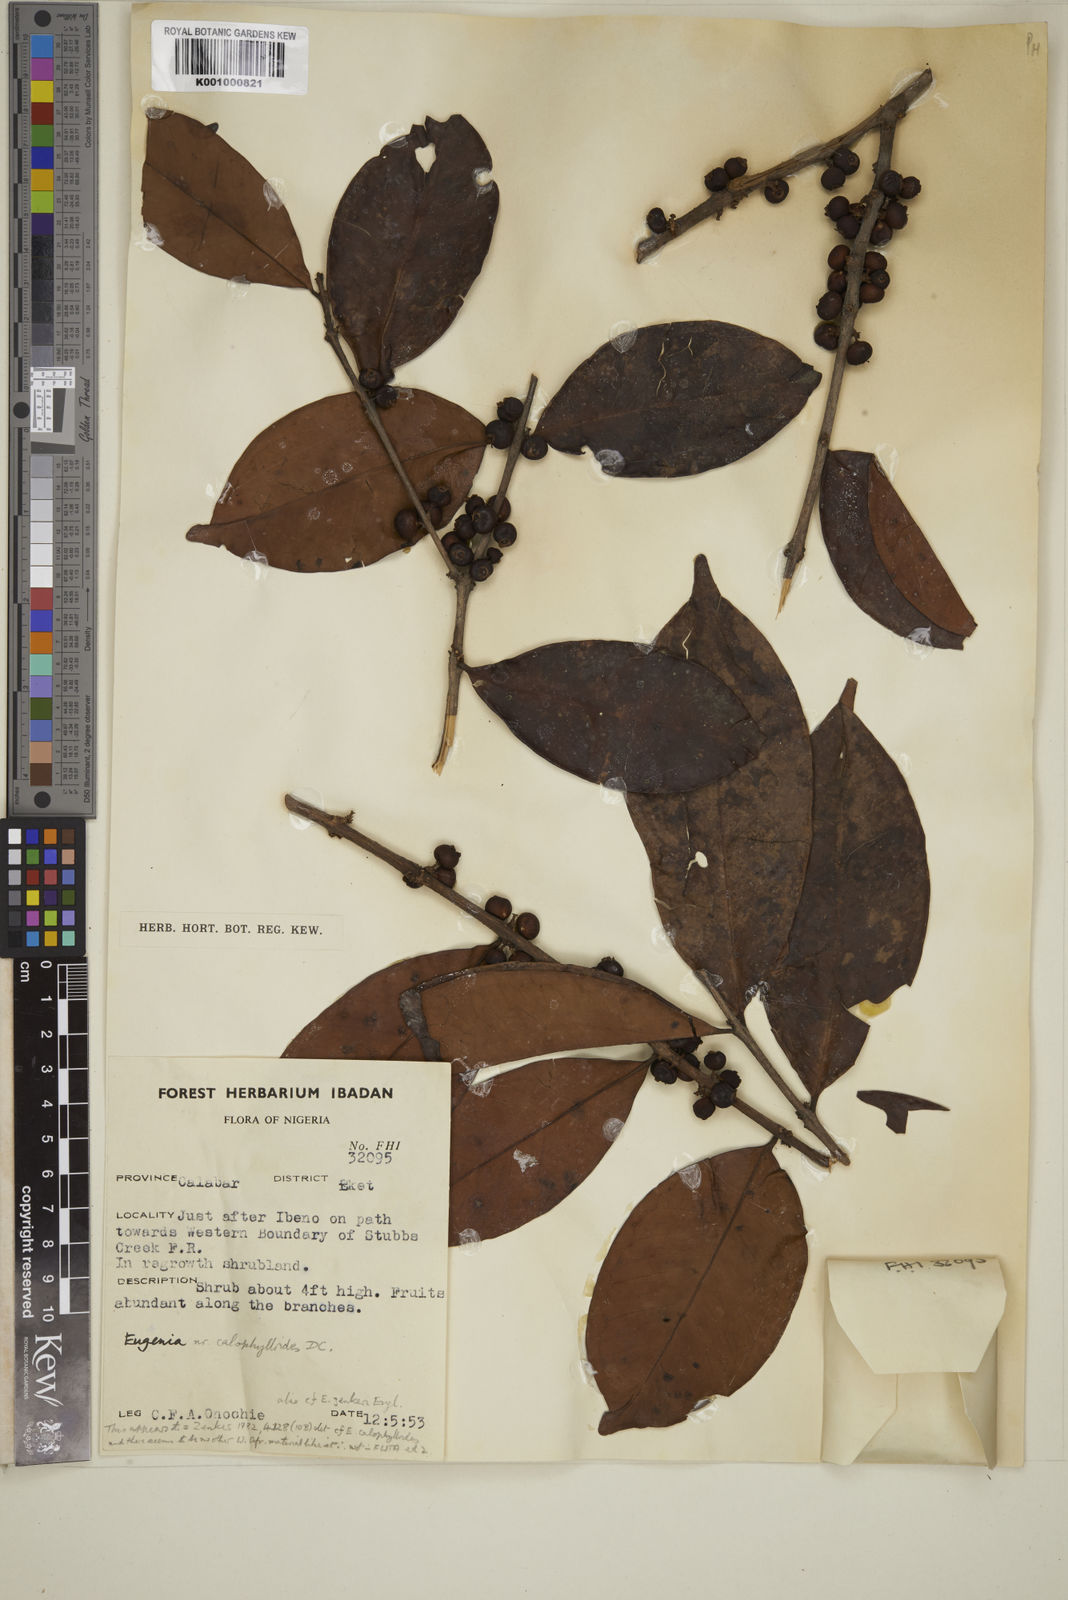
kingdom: Plantae
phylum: Tracheophyta
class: Magnoliopsida
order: Myrtales
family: Myrtaceae
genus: Eugenia
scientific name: Eugenia
